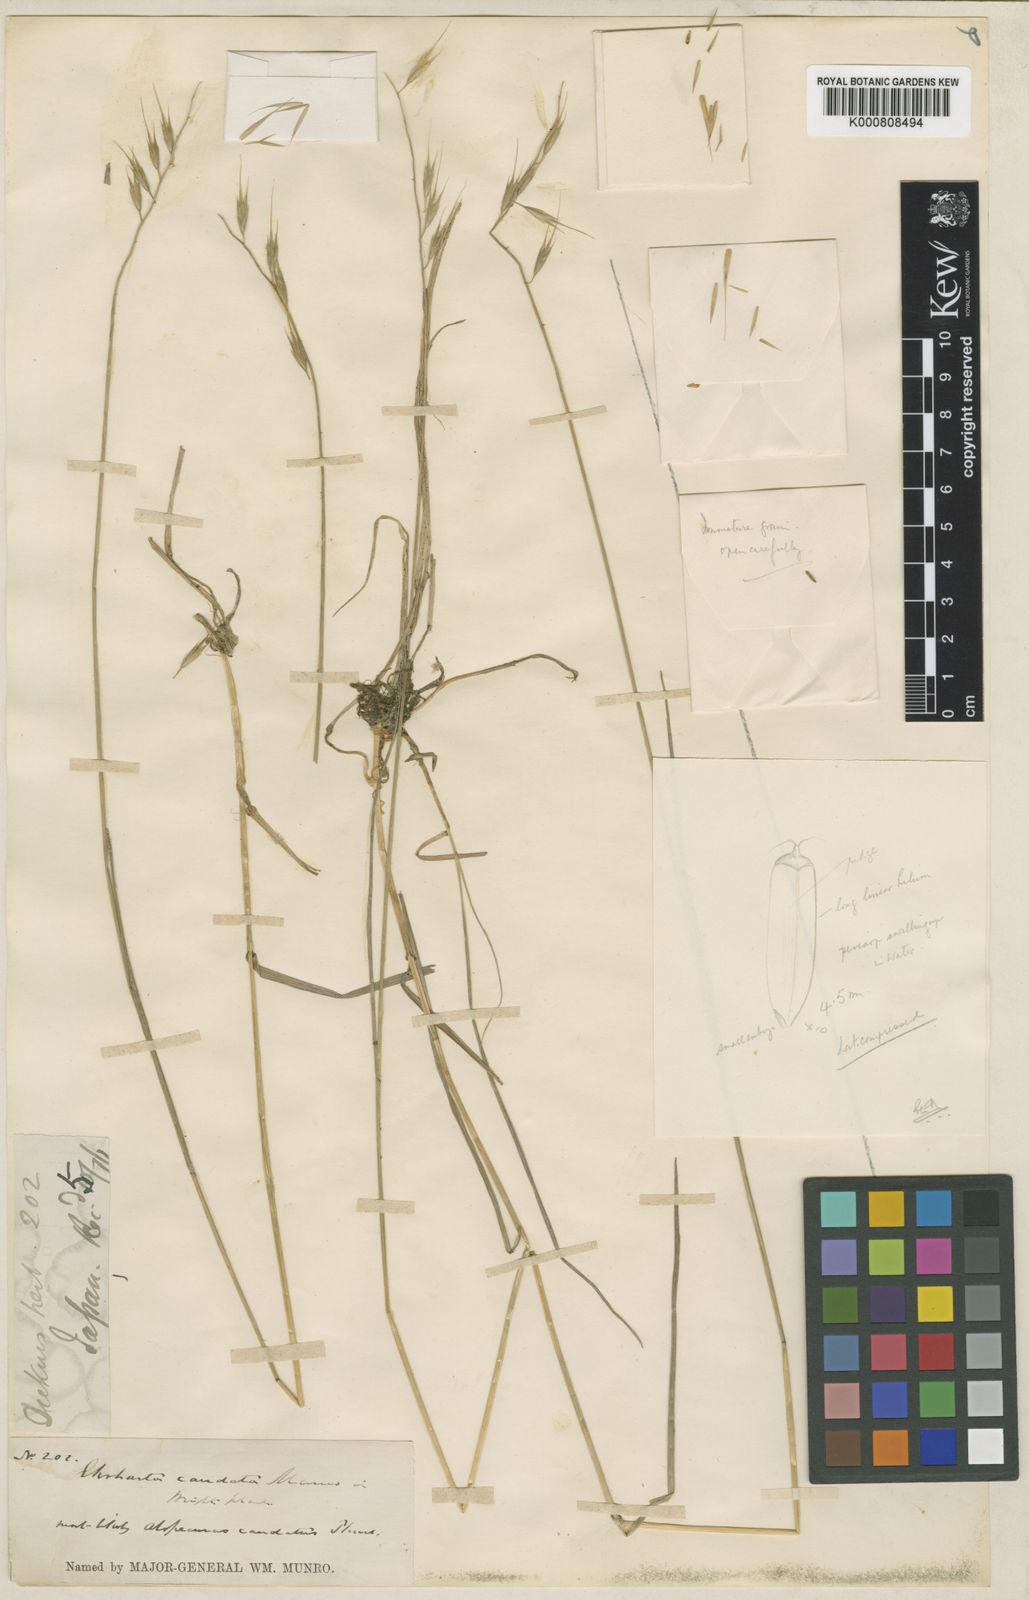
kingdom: Plantae
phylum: Tracheophyta
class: Liliopsida
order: Poales
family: Poaceae
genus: Brylkinia
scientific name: Brylkinia caudata
